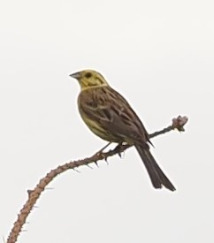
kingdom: Animalia
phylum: Chordata
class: Aves
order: Passeriformes
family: Emberizidae
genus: Emberiza
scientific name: Emberiza citrinella
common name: Gulspurv
